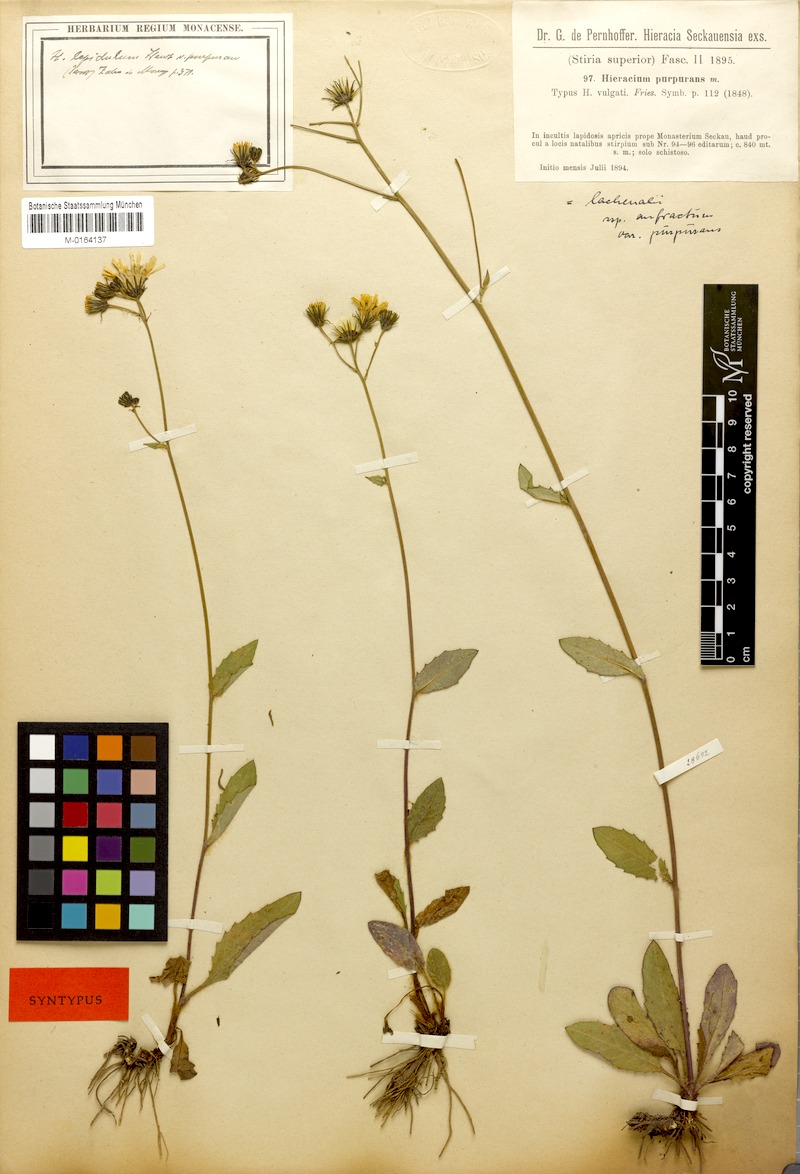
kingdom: Plantae
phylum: Tracheophyta
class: Magnoliopsida
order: Asterales
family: Asteraceae
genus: Hieracium
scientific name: Hieracium lachenalii
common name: Common hawkweed
